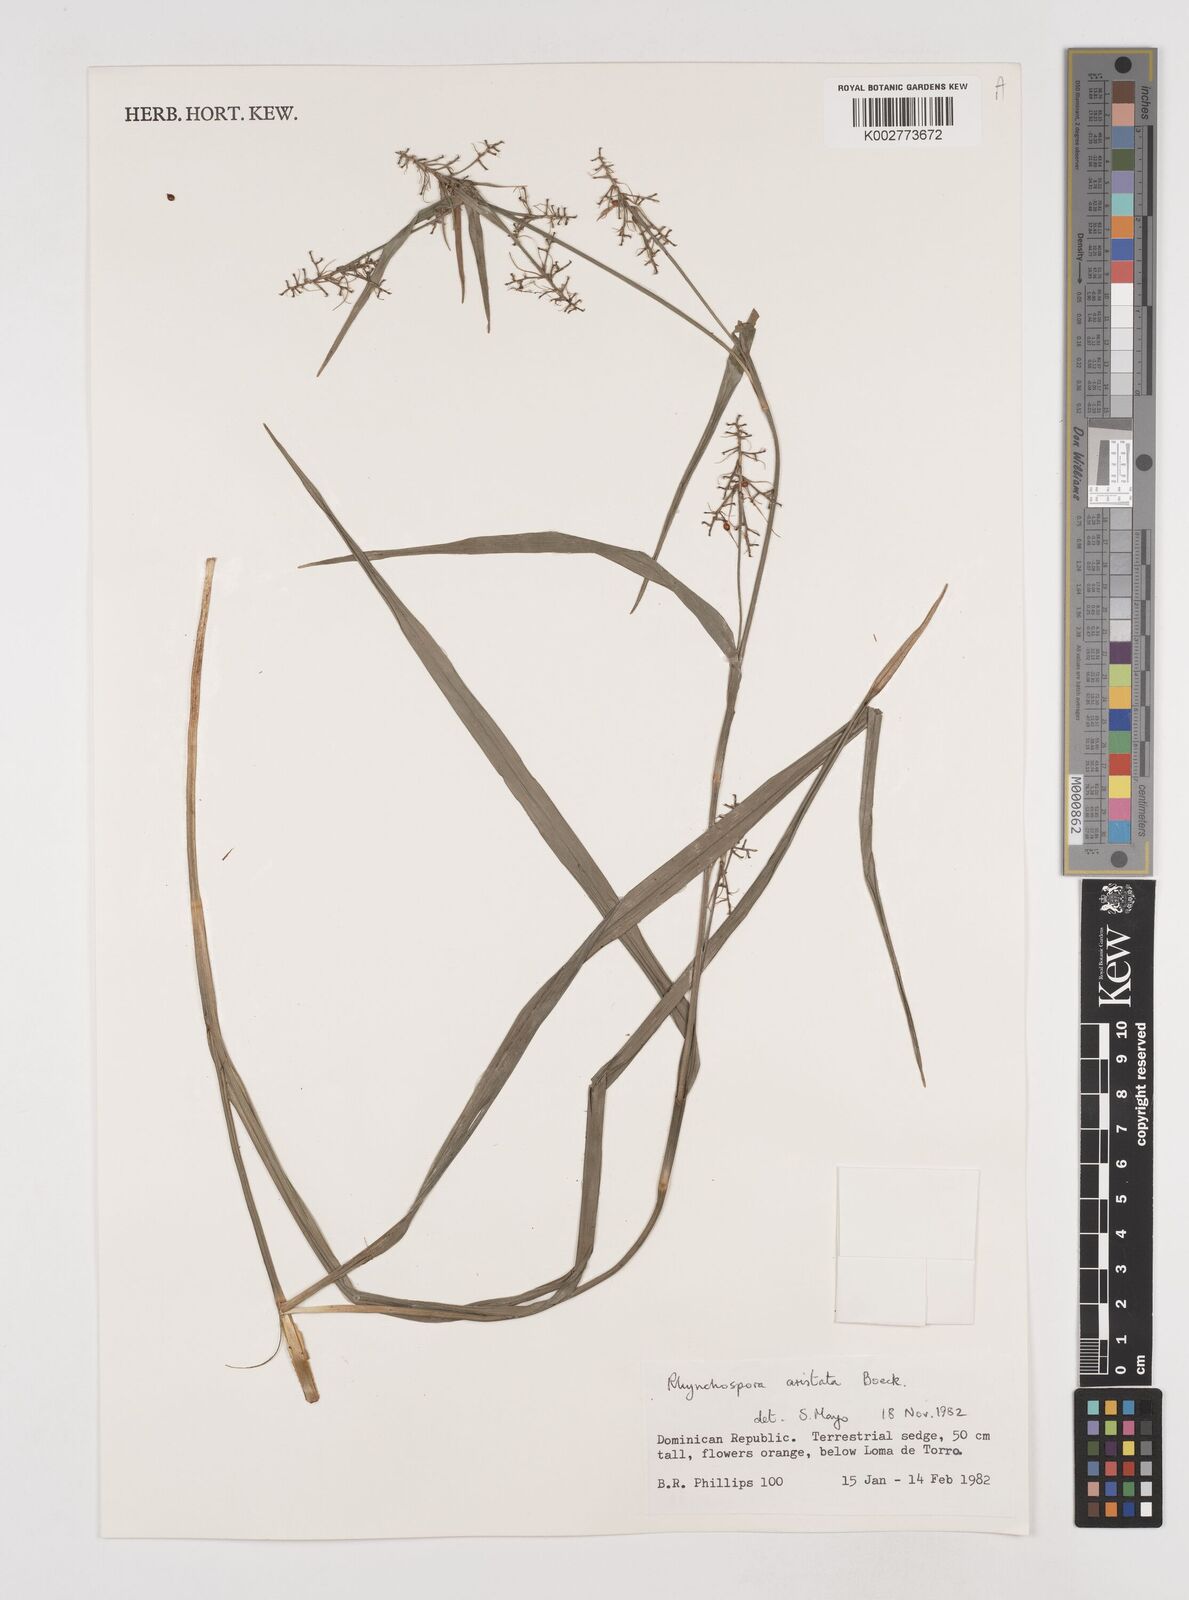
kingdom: Plantae
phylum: Tracheophyta
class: Liliopsida
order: Poales
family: Cyperaceae
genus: Rhynchospora
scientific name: Rhynchospora aristata
